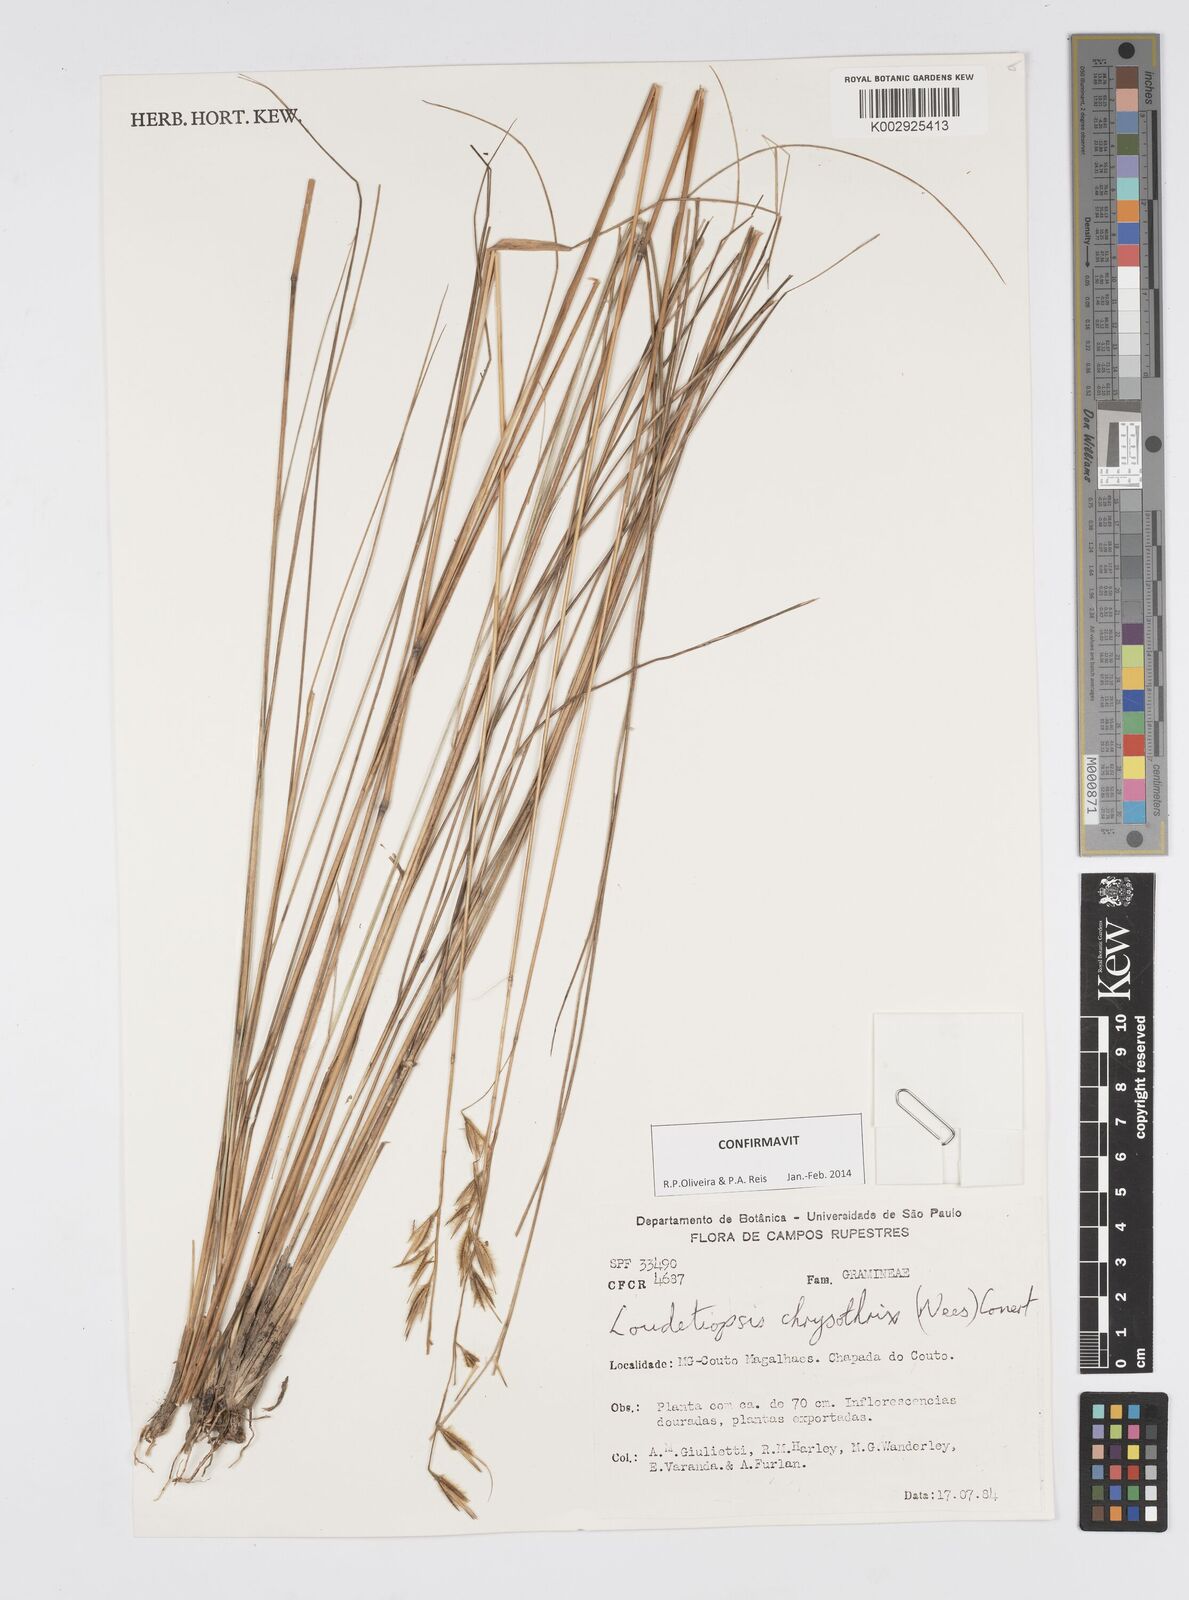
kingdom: Plantae
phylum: Tracheophyta
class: Liliopsida
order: Poales
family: Poaceae
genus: Loudetiopsis
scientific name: Loudetiopsis chrysothrix
